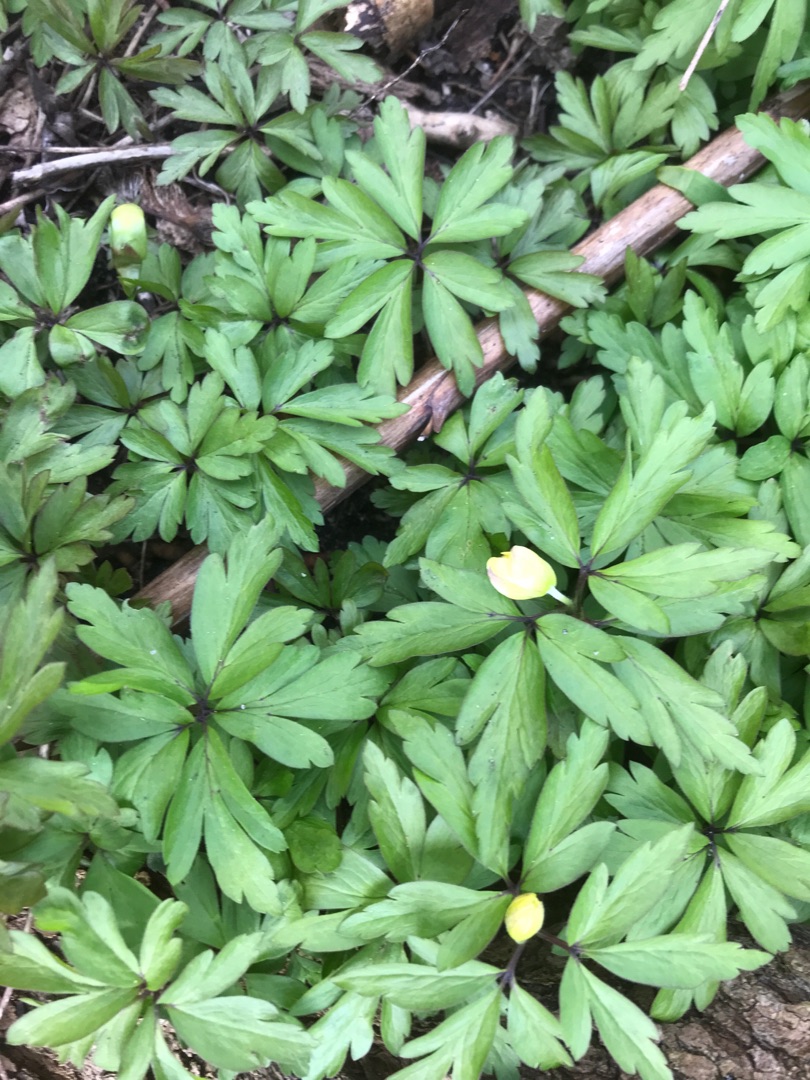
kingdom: Plantae
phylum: Tracheophyta
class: Magnoliopsida
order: Ranunculales
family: Ranunculaceae
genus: Anemone
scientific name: Anemone
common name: Svovlgul anemone
